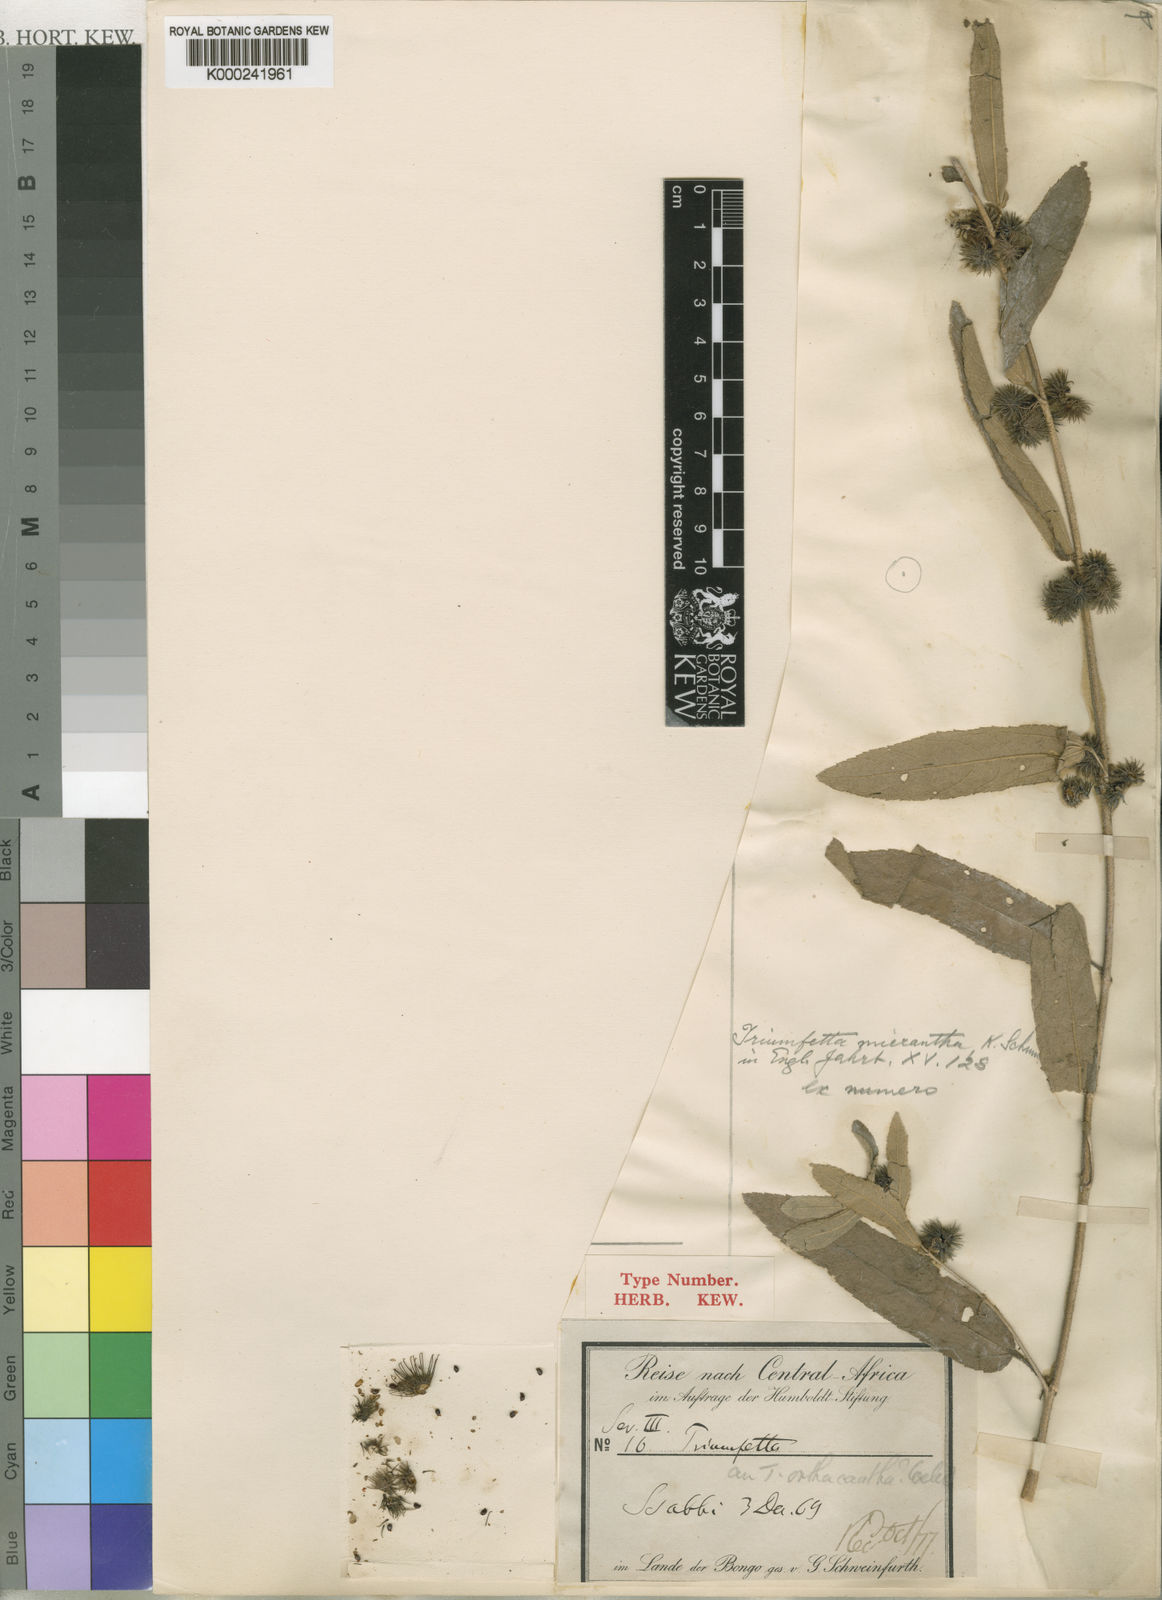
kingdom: Plantae
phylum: Tracheophyta
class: Magnoliopsida
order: Malvales
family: Malvaceae
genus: Triumfetta
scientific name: Triumfetta setulosa
